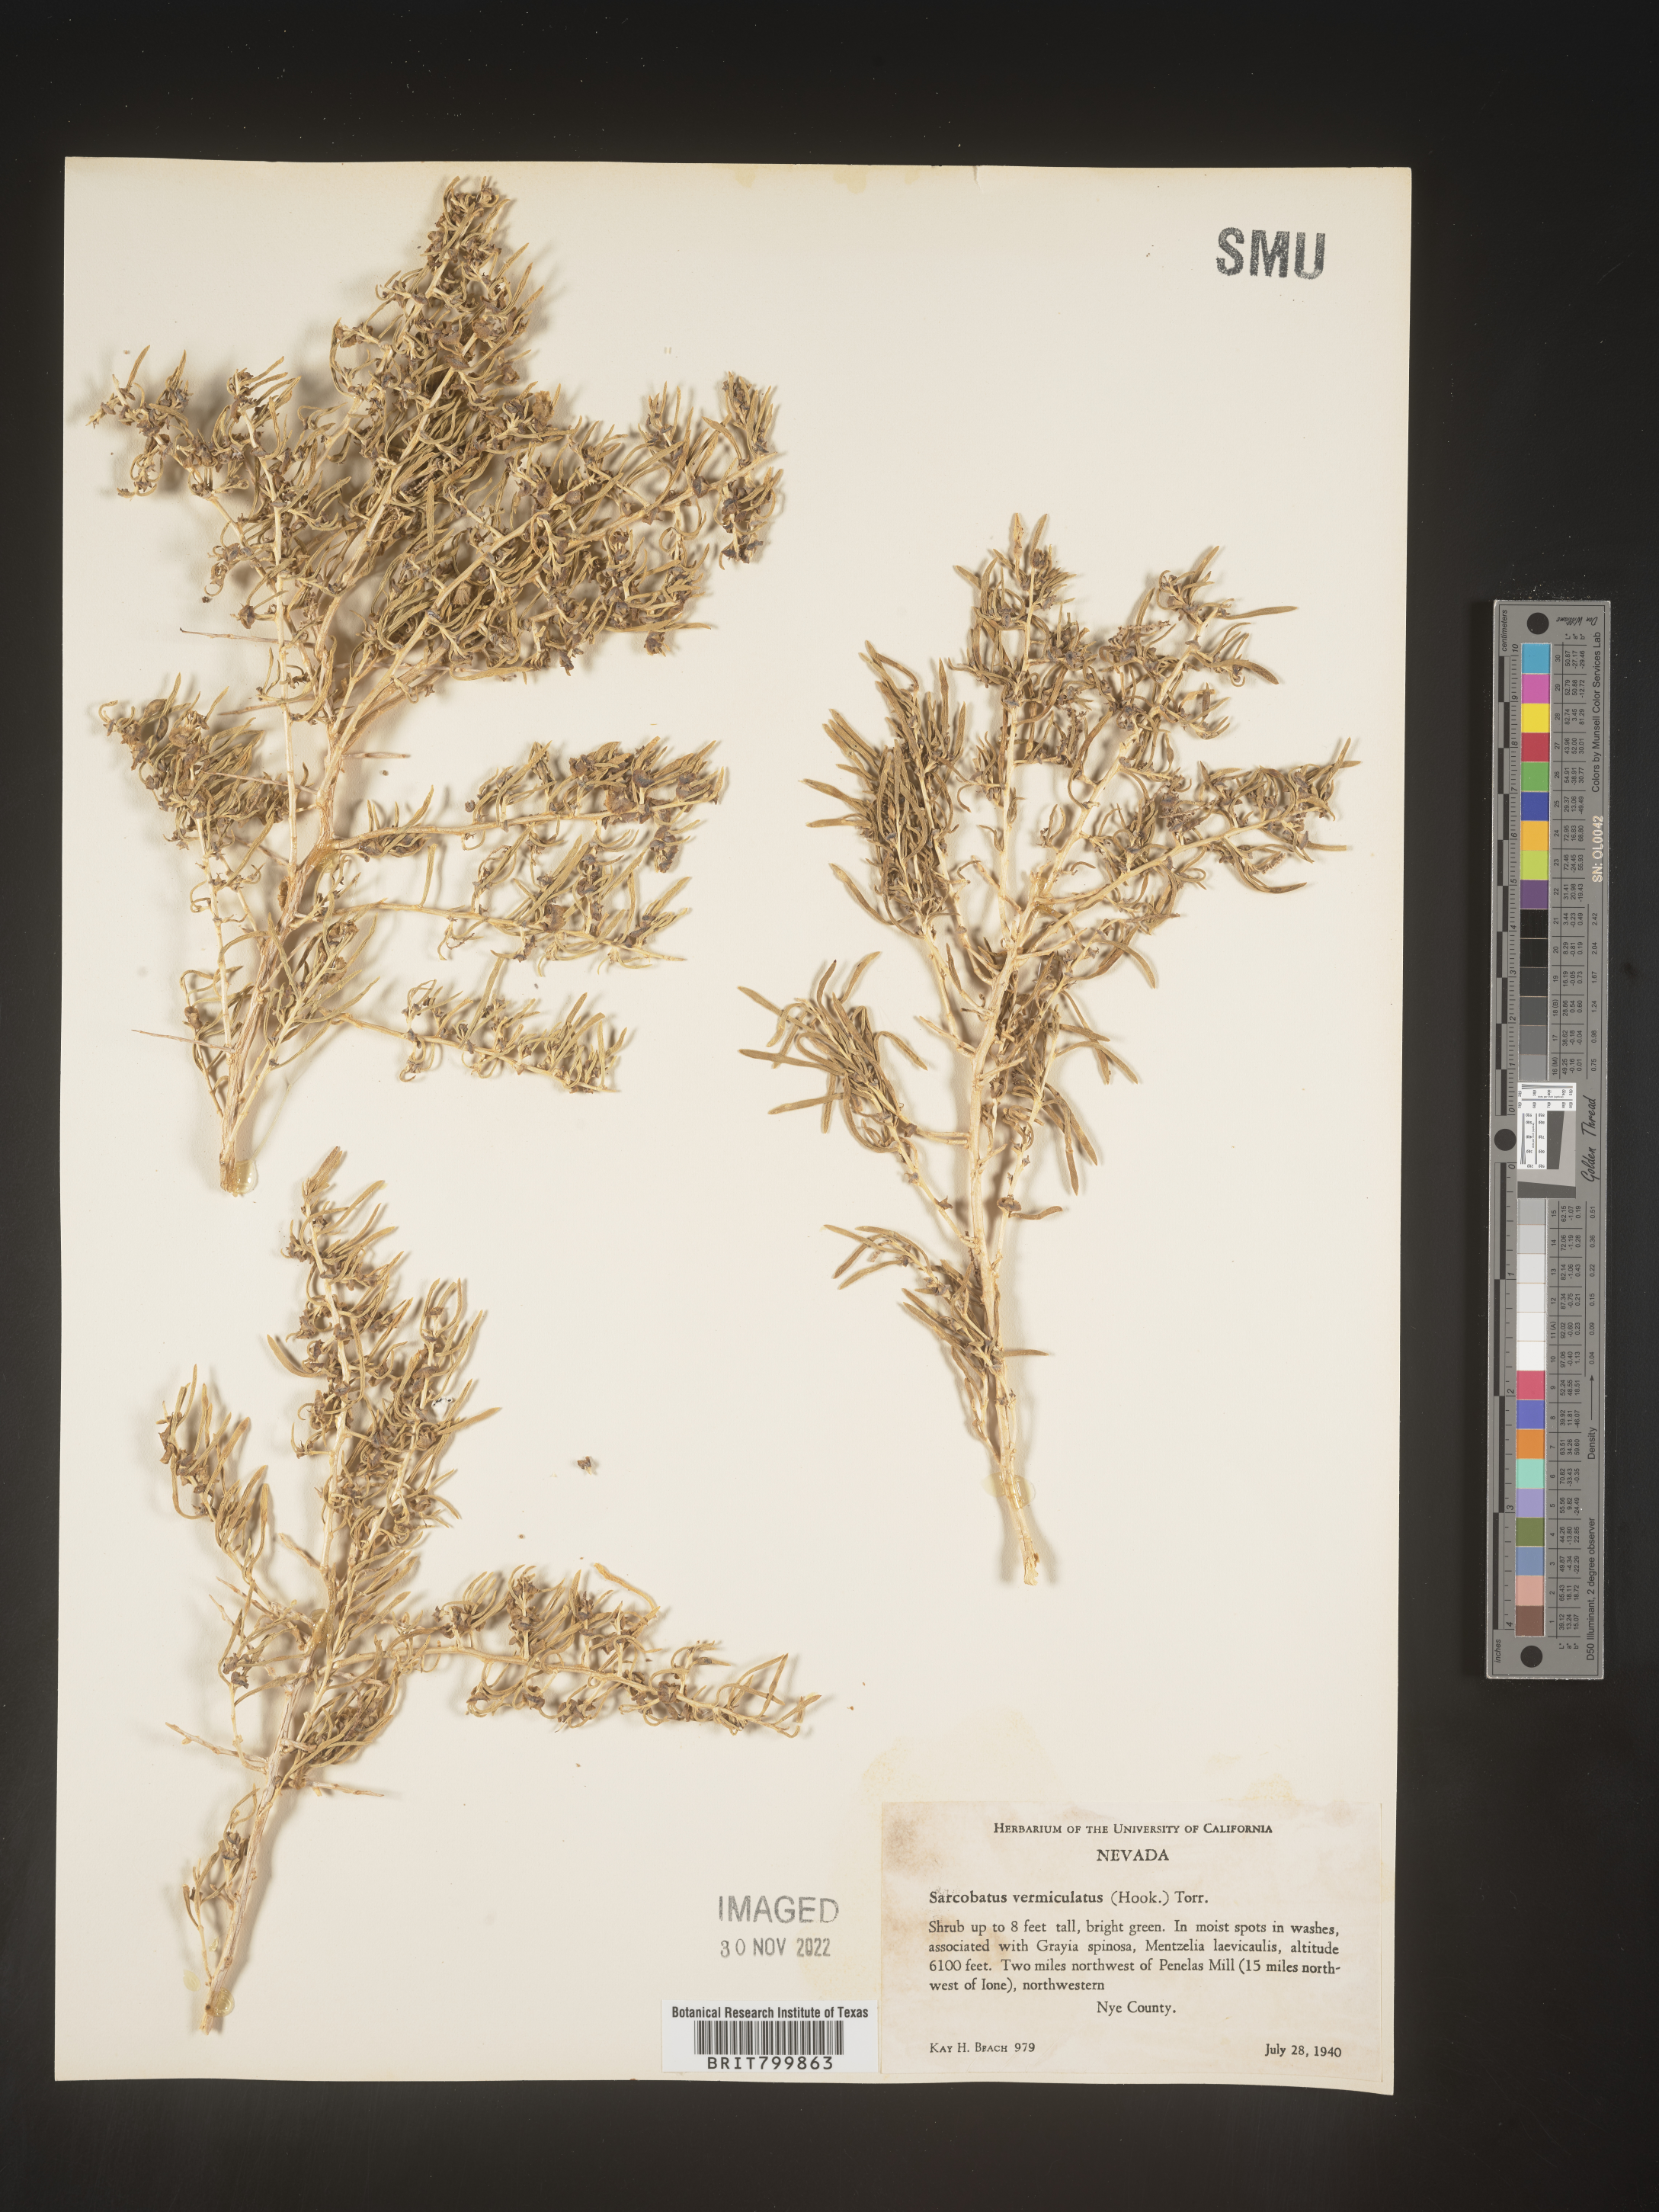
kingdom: Plantae
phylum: Tracheophyta
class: Magnoliopsida
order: Caryophyllales
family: Sarcobataceae
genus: Sarcobatus
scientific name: Sarcobatus vermiculatus
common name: Greasewood
